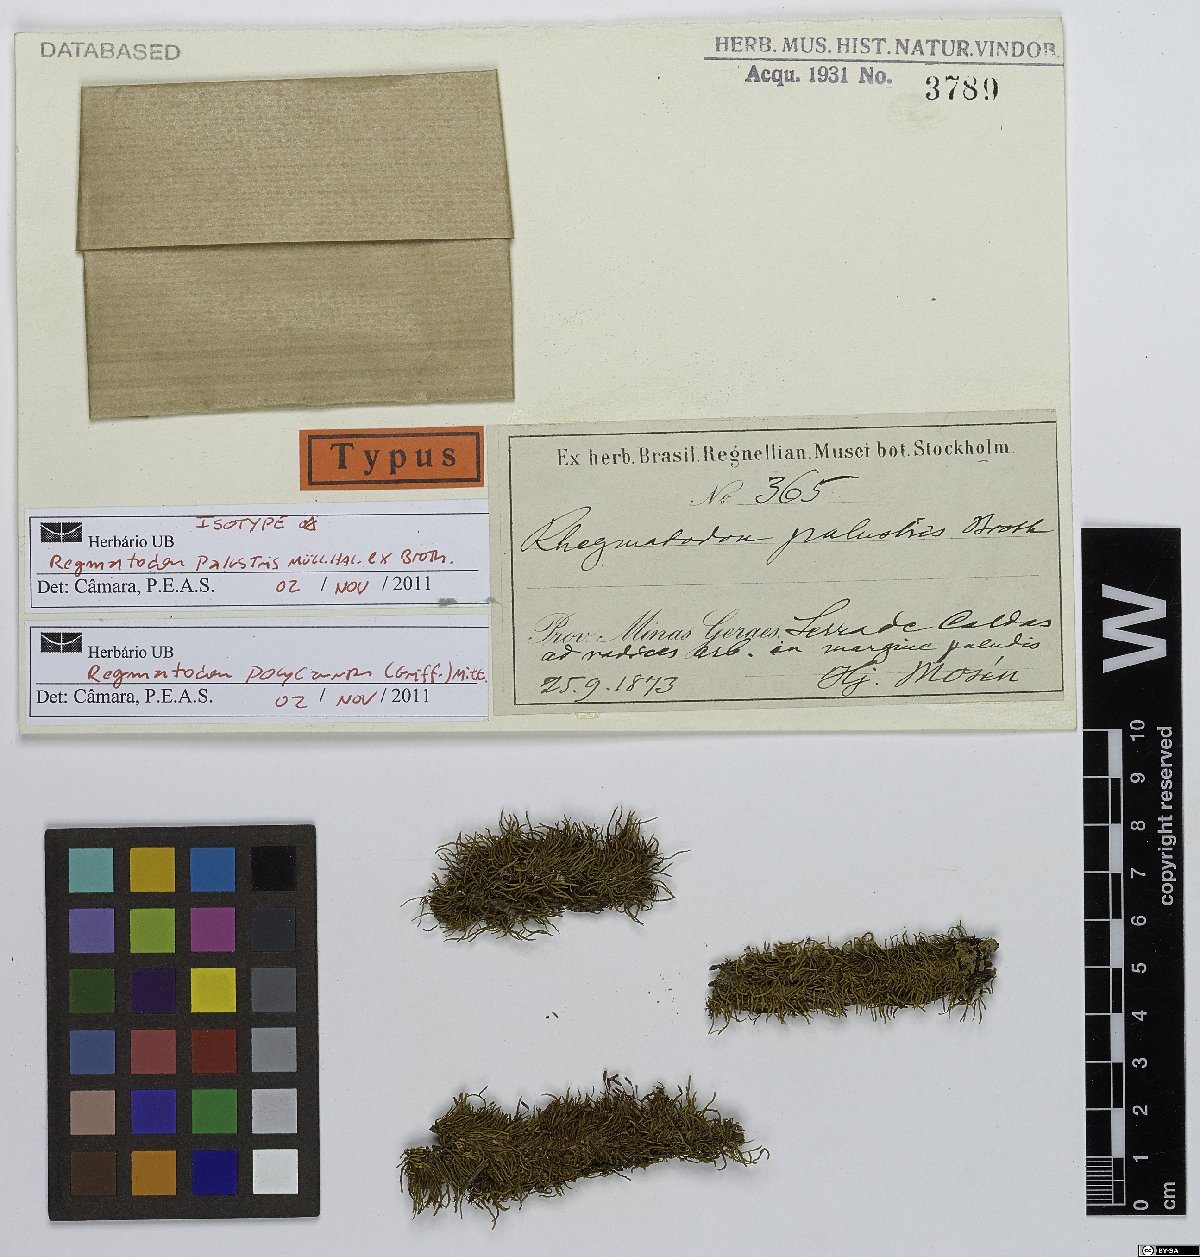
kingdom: Plantae
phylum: Bryophyta
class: Bryopsida
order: Hypnales
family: Regmatodontaceae
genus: Regmatodon
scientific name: Regmatodon
